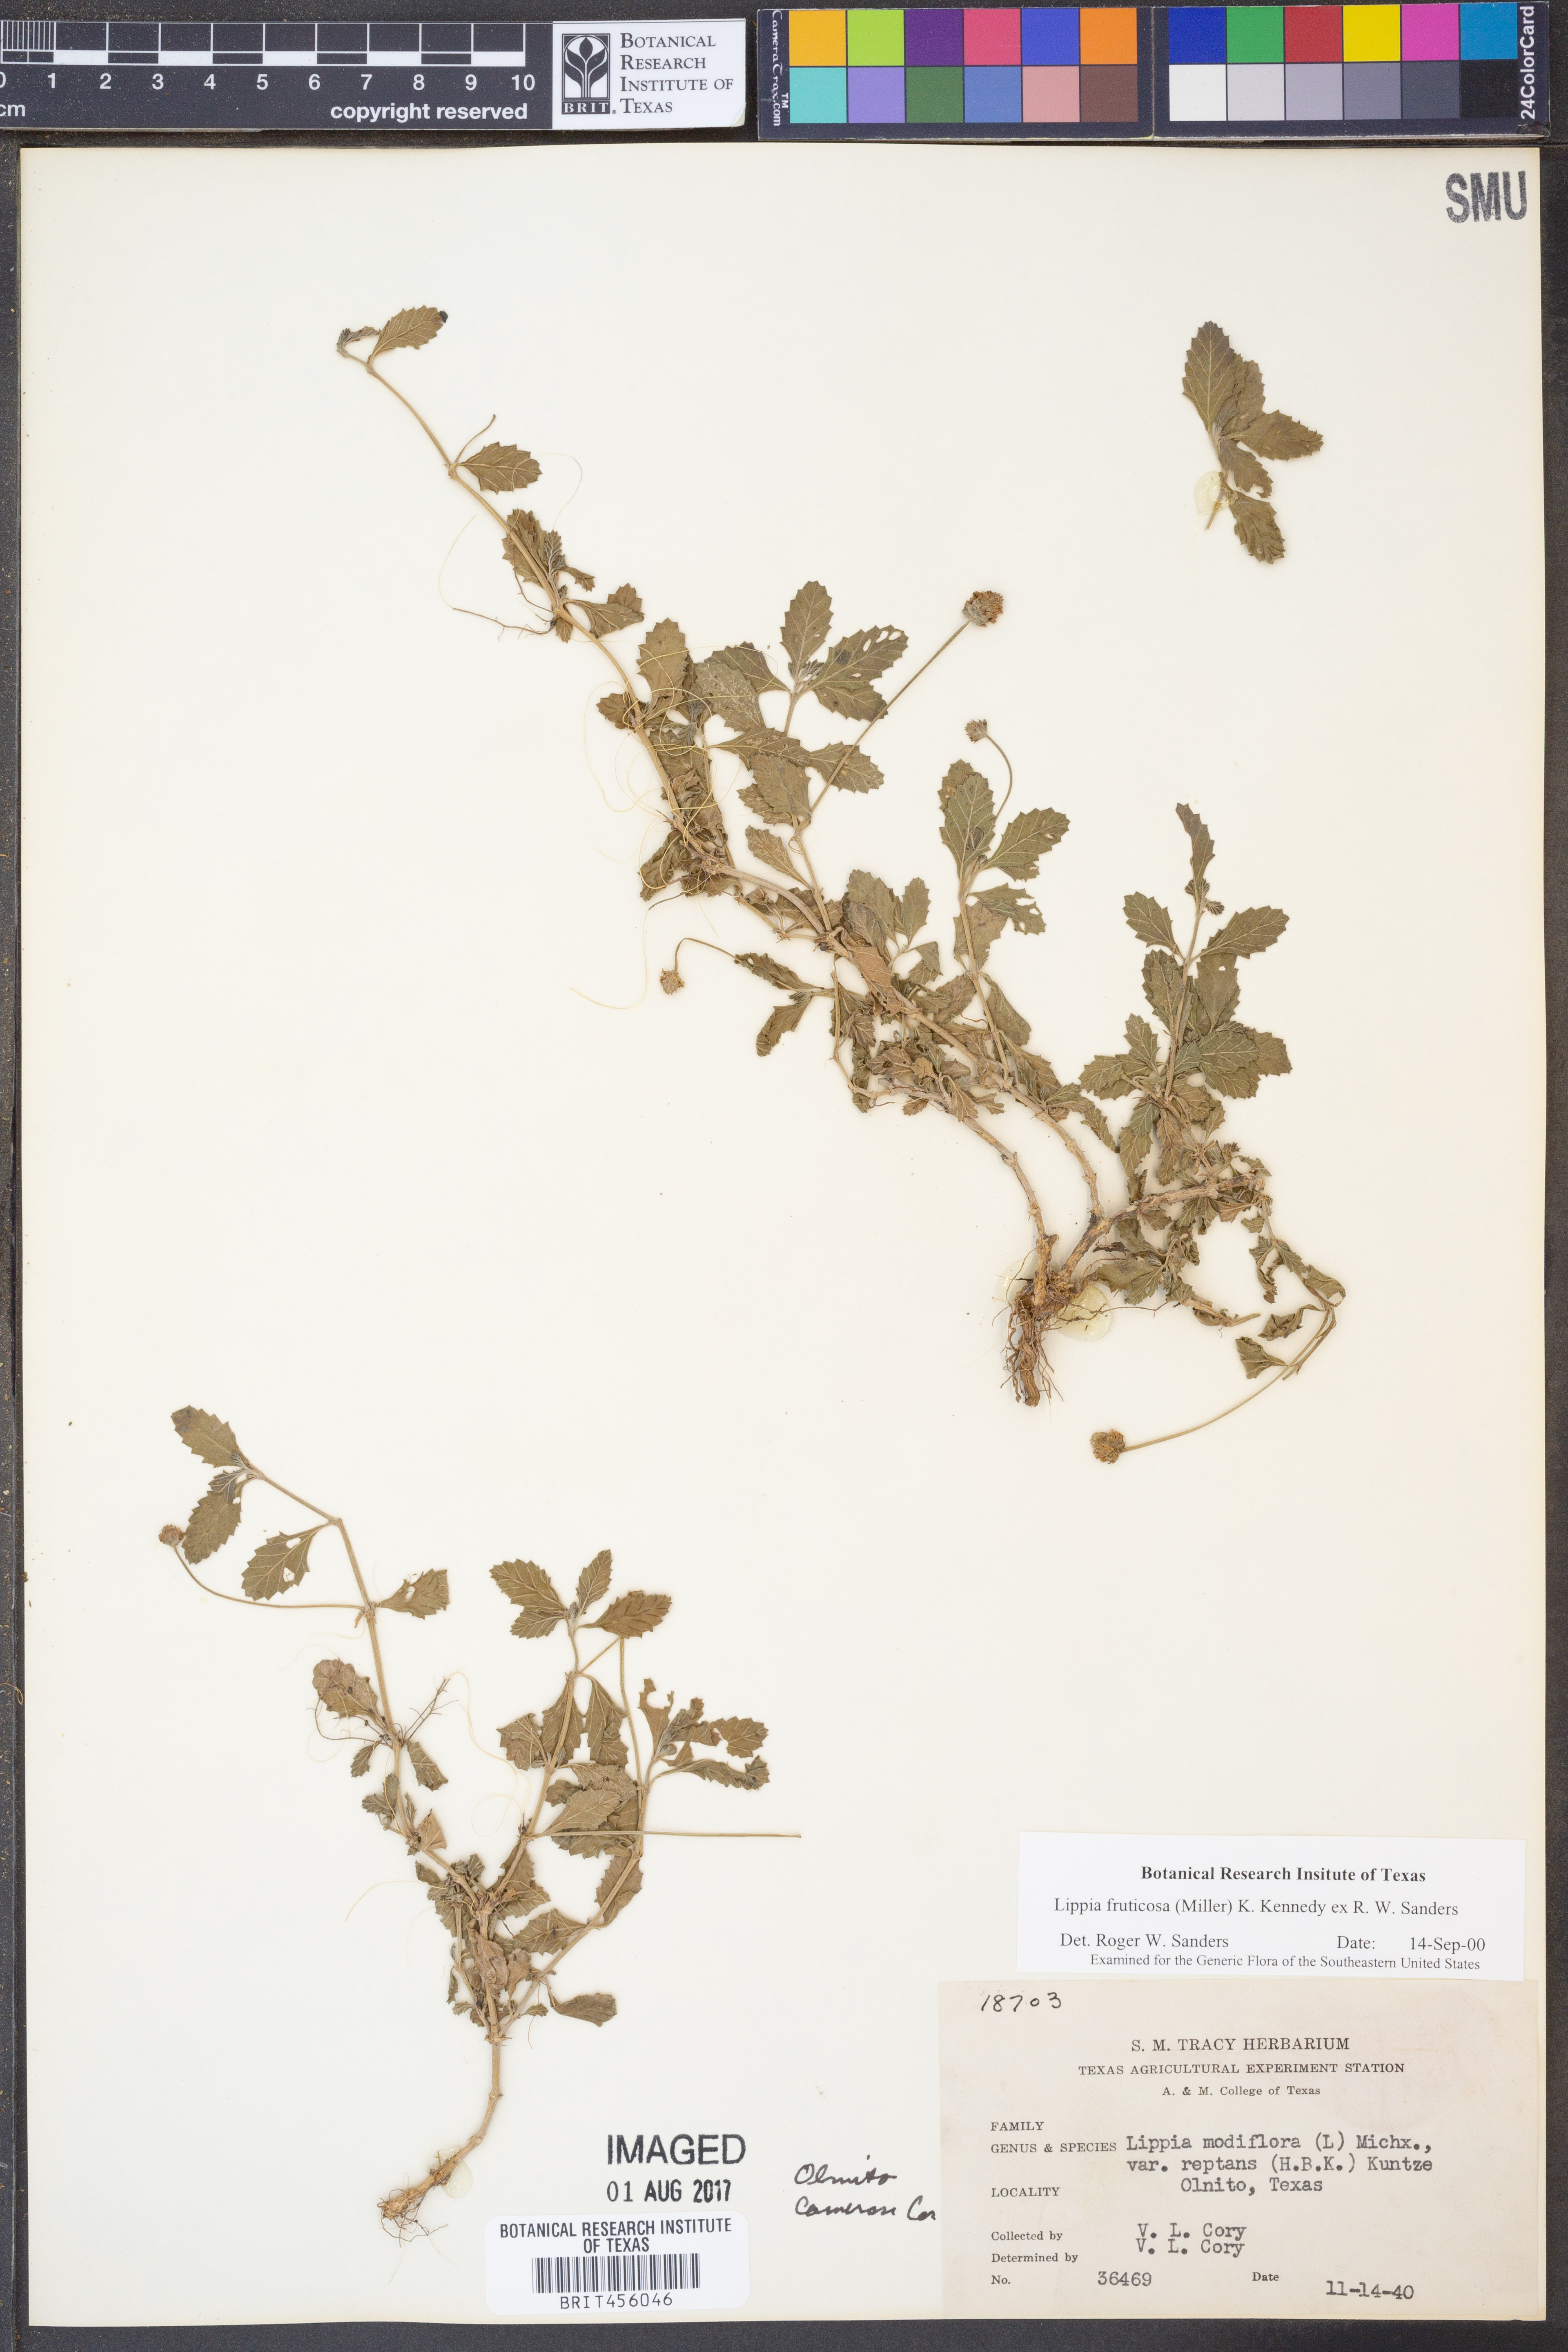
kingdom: Plantae
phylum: Tracheophyta
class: Magnoliopsida
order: Lamiales
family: Verbenaceae
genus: Phyla
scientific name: Phyla nodiflora
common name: Frogfruit
